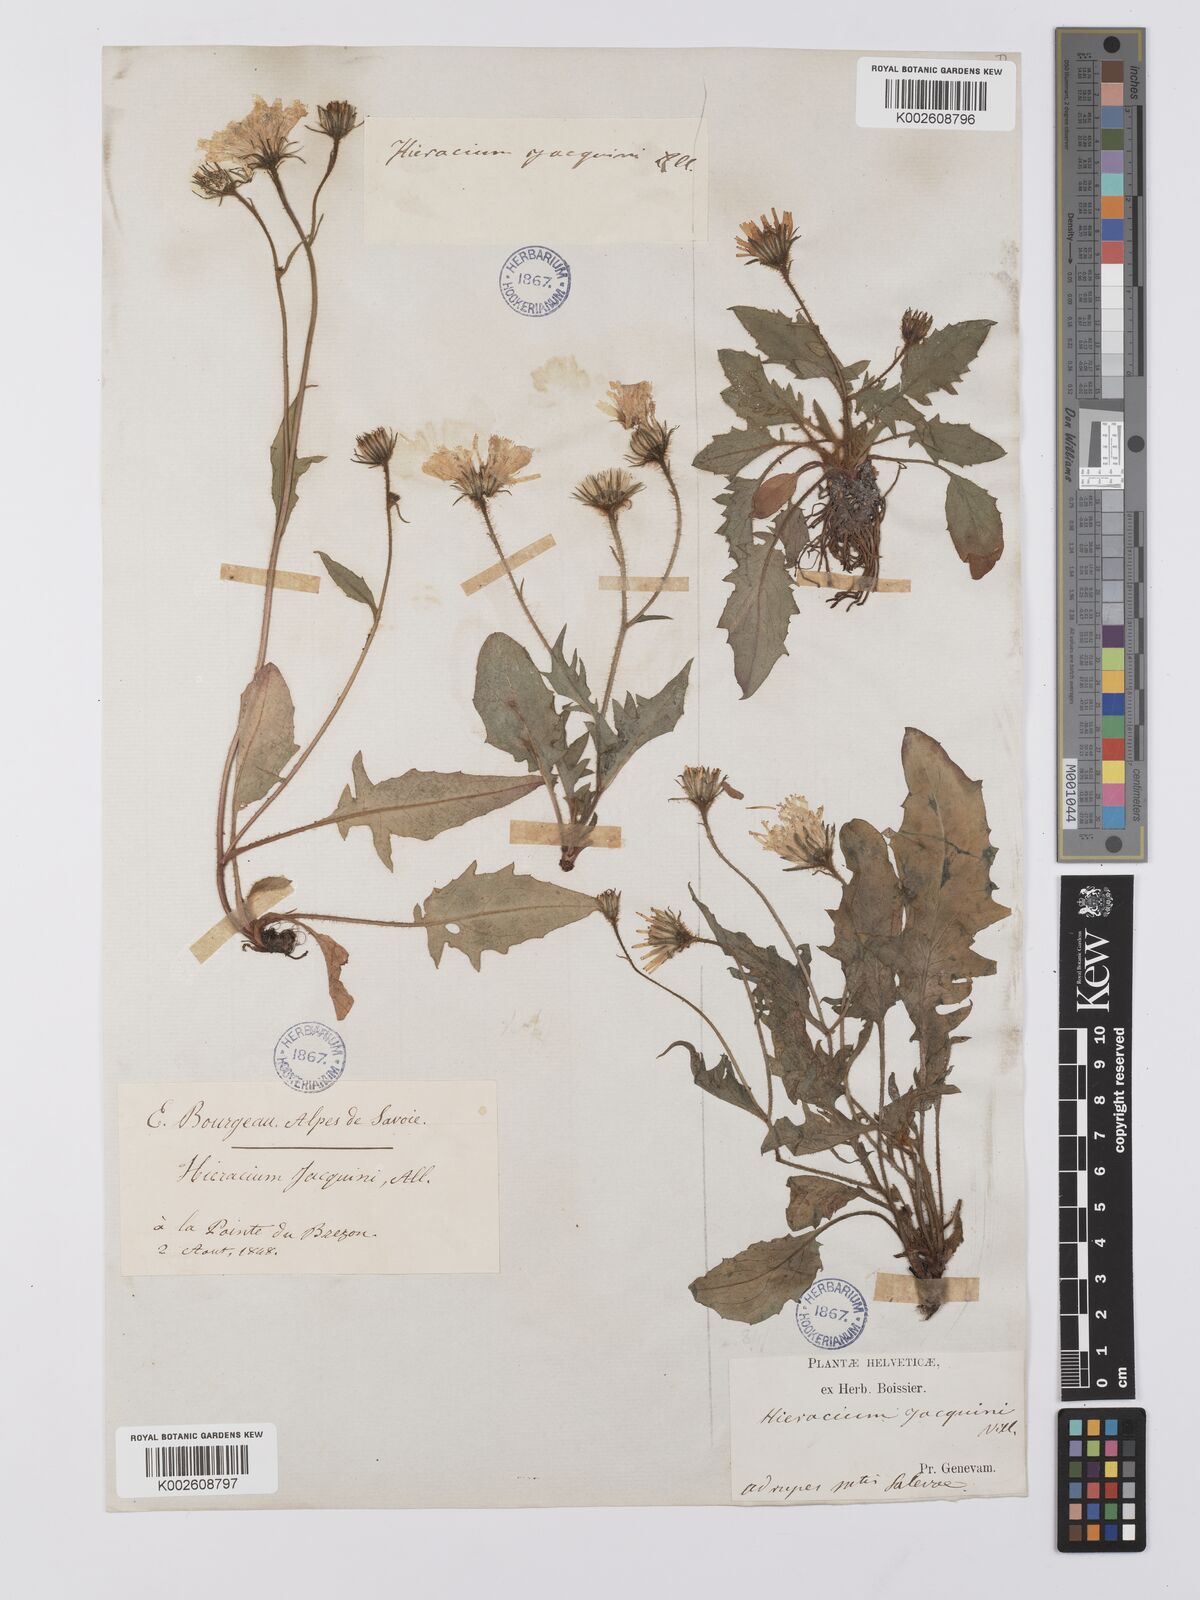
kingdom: Plantae
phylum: Tracheophyta
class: Magnoliopsida
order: Asterales
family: Asteraceae
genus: Hieracium
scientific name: Hieracium humile
